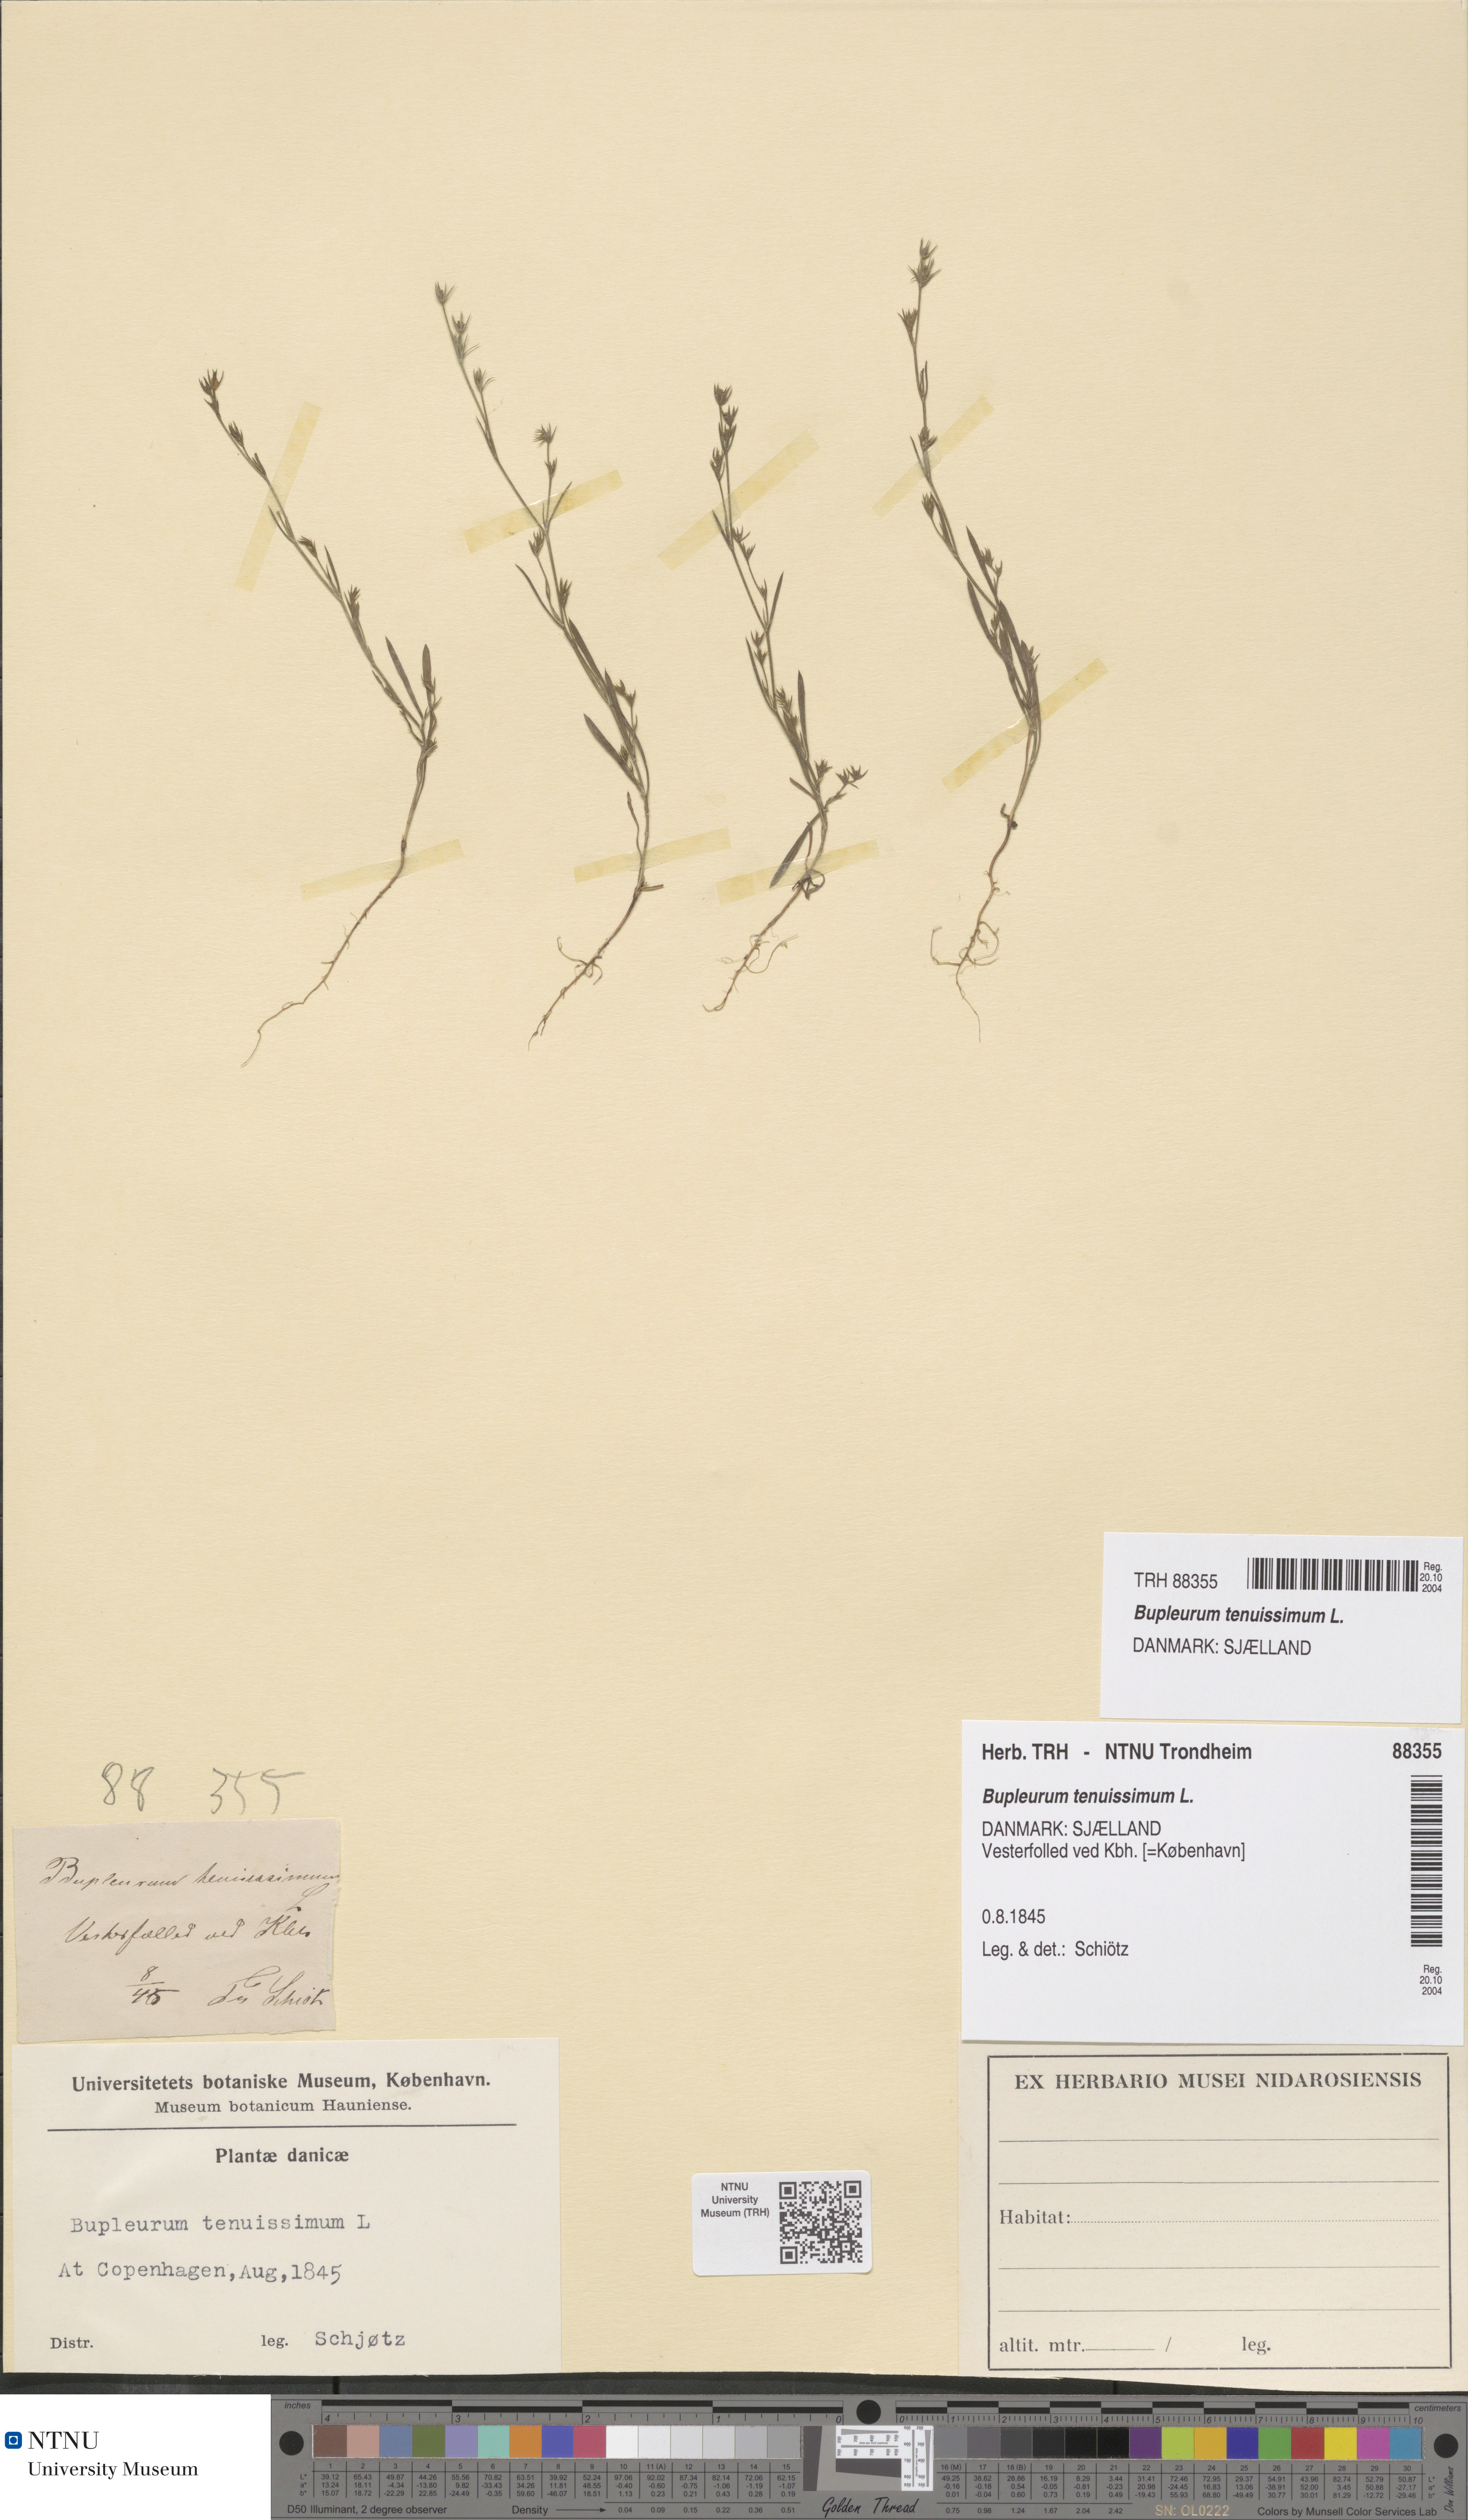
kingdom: Plantae
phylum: Tracheophyta
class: Magnoliopsida
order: Apiales
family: Apiaceae
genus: Bupleurum
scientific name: Bupleurum tenuissimum
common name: Slender hare's-ear
